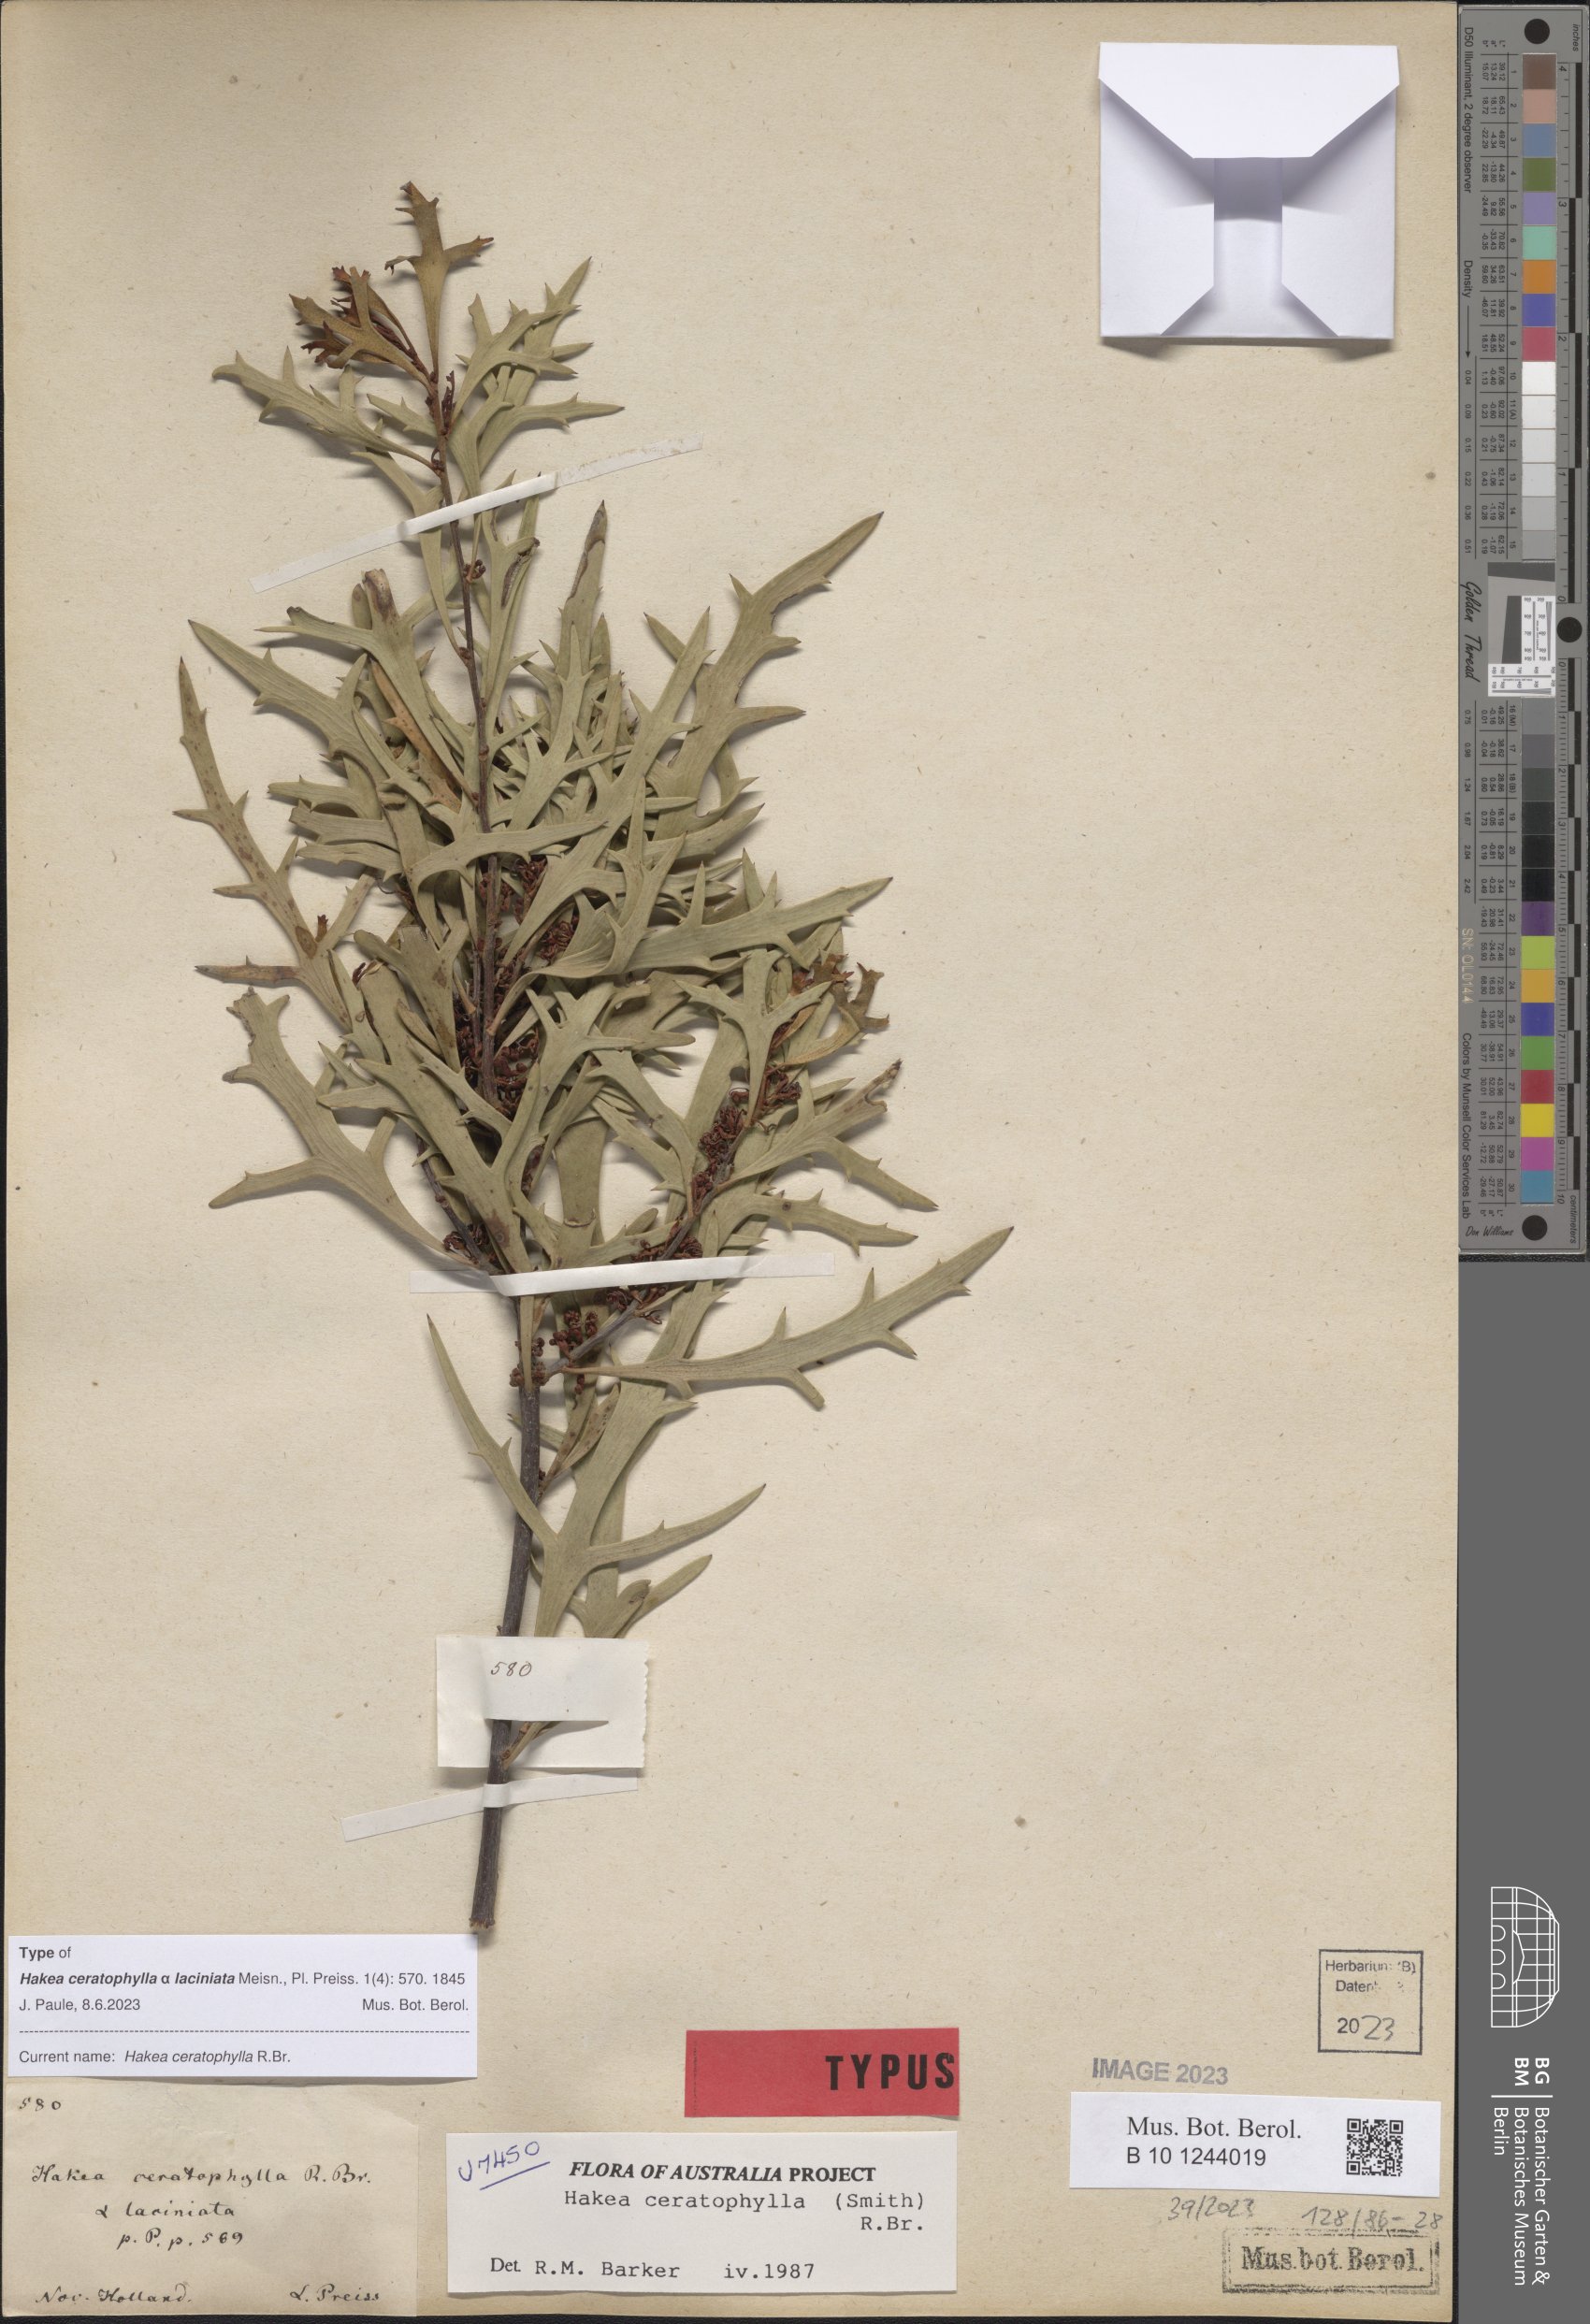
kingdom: Plantae
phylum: Tracheophyta
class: Magnoliopsida
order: Proteales
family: Proteaceae
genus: Hakea
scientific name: Hakea ceratophylla
